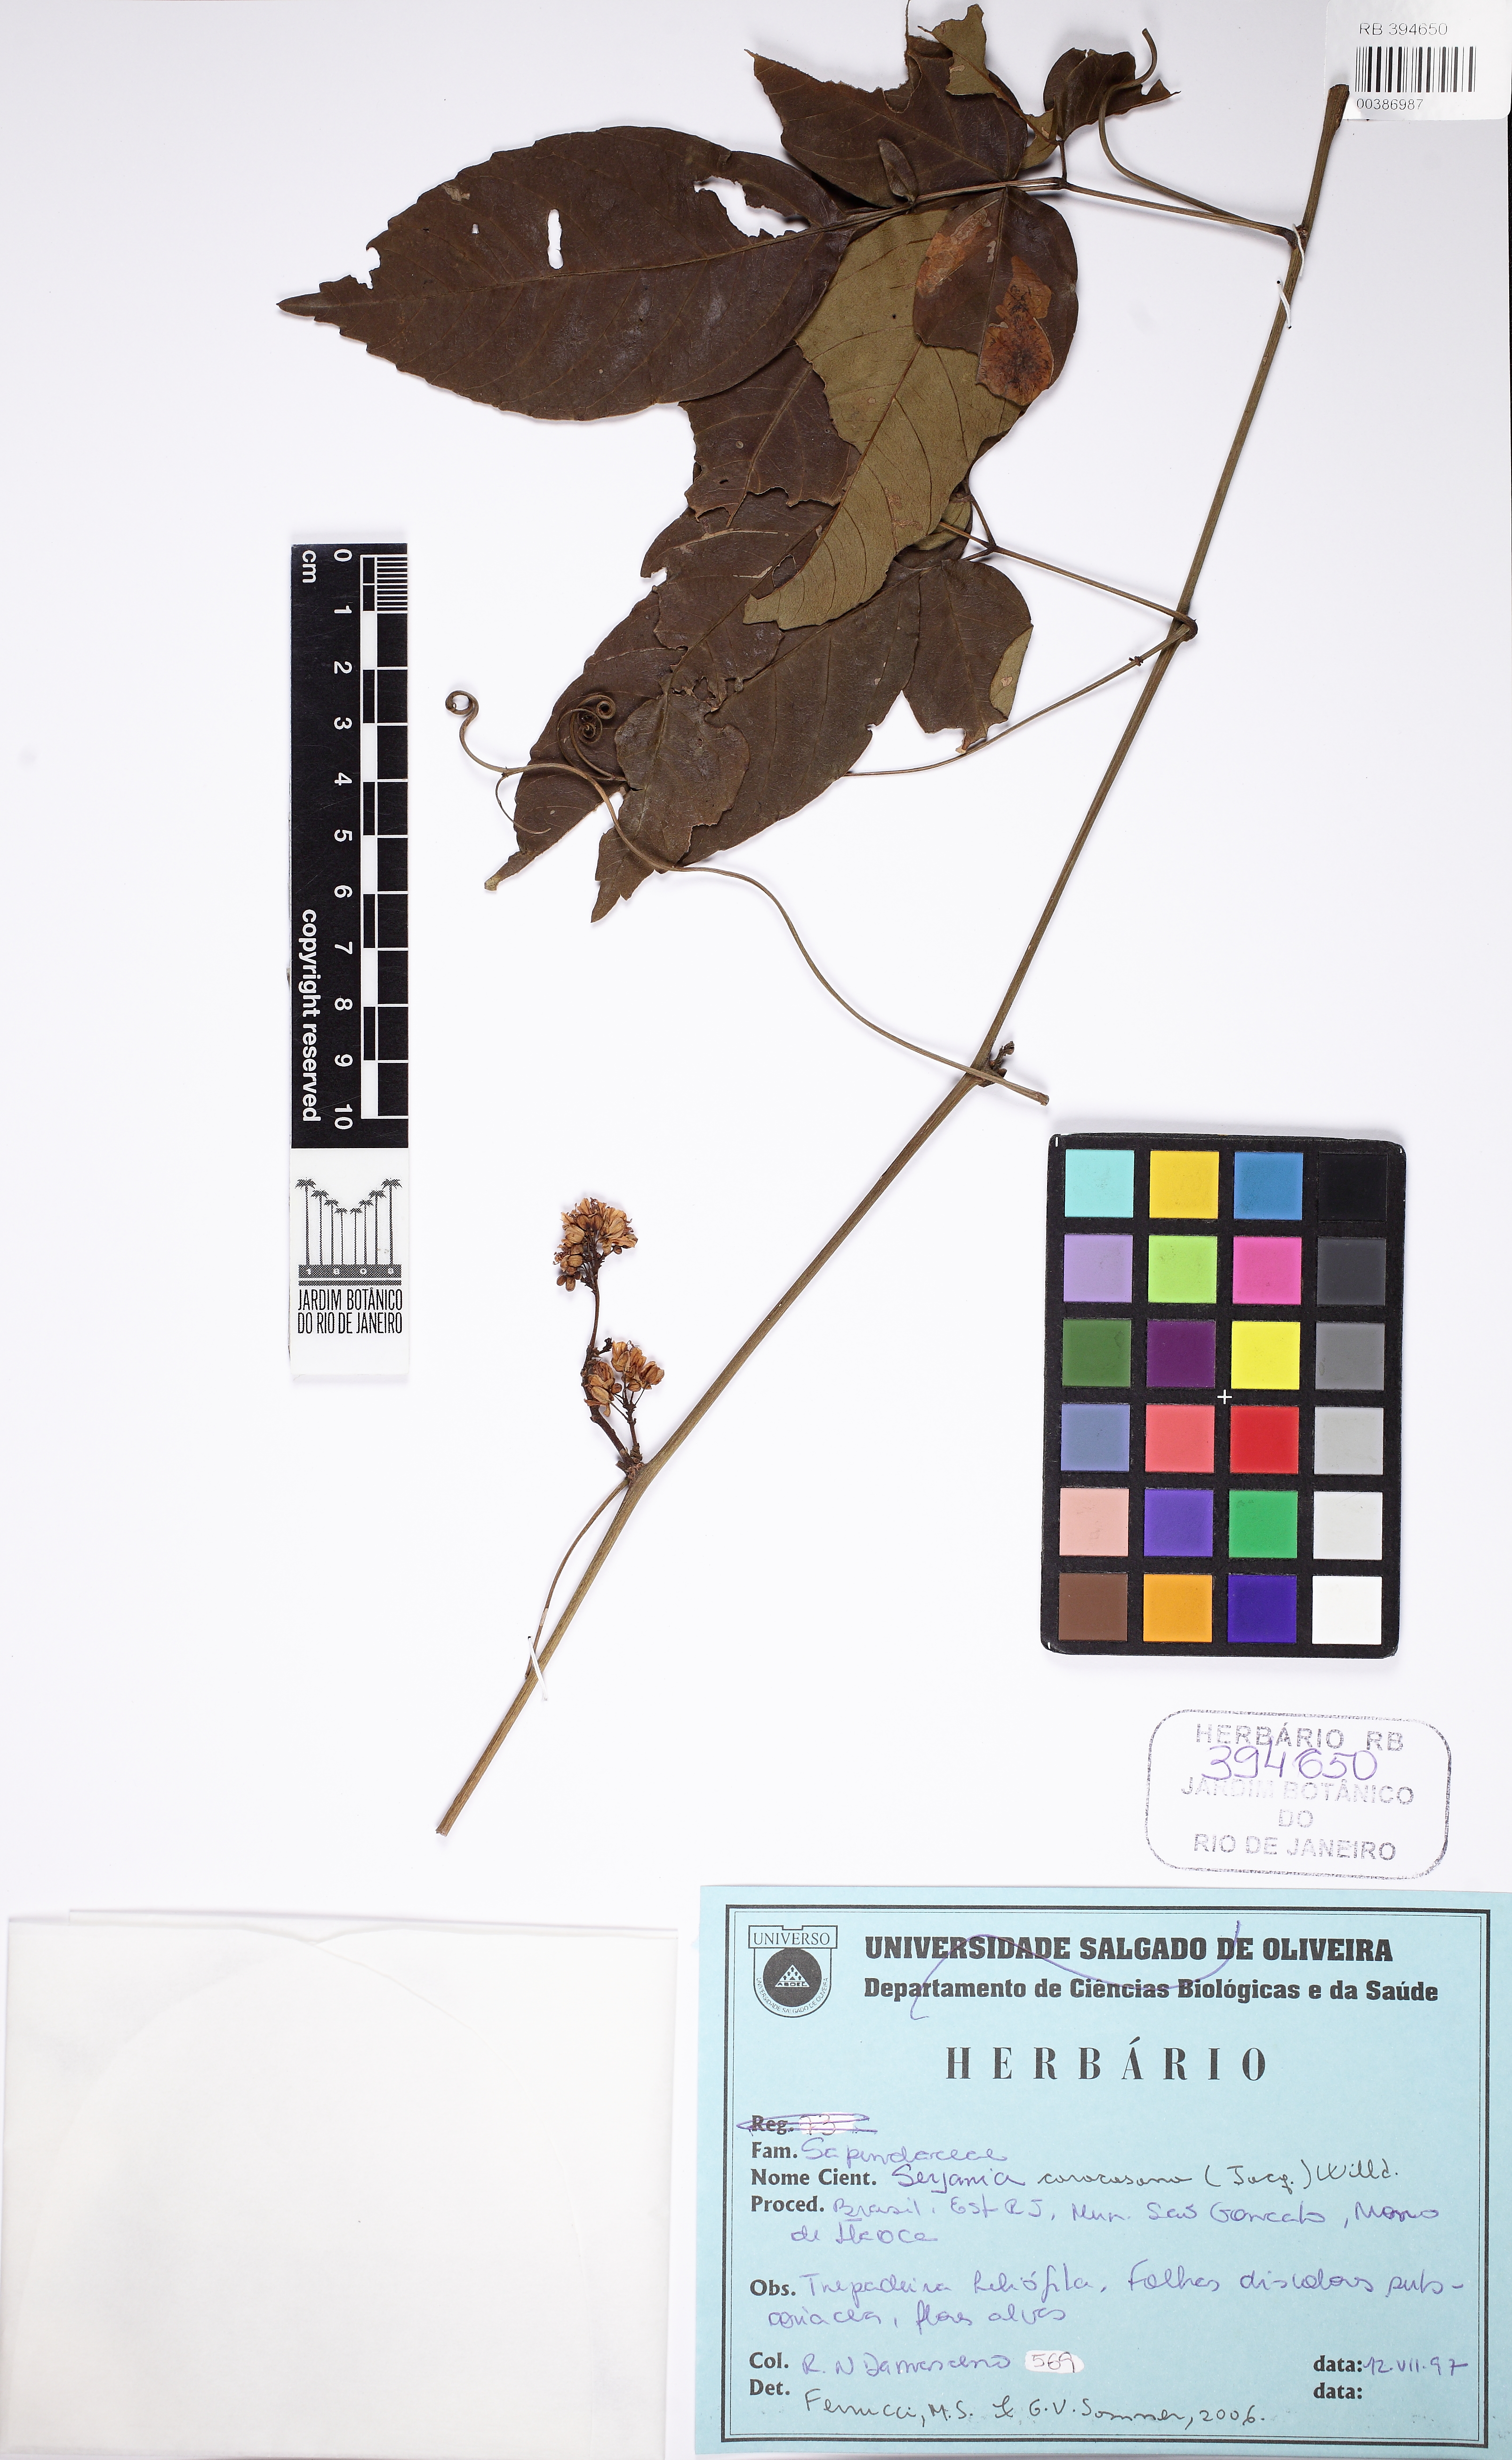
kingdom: Plantae
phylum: Tracheophyta
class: Magnoliopsida
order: Sapindales
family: Sapindaceae
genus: Serjania
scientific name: Serjania caracasana
